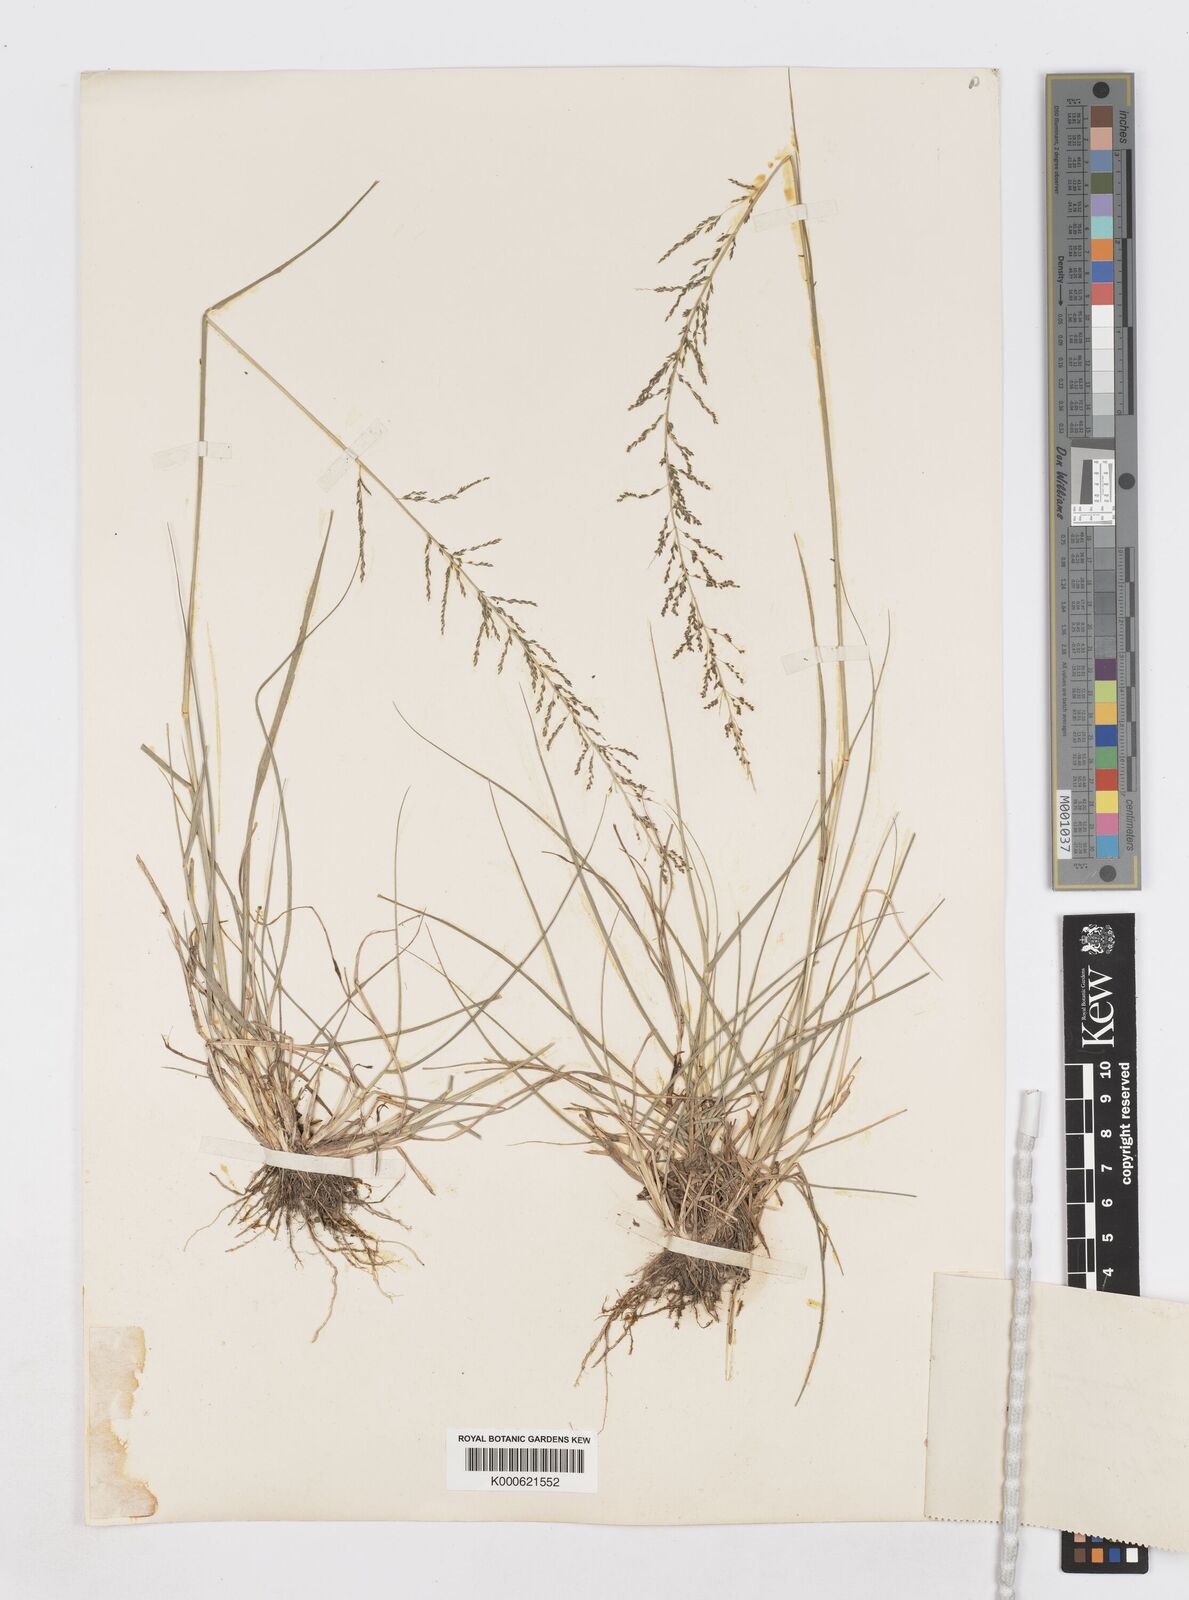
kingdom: Plantae
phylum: Tracheophyta
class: Liliopsida
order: Poales
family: Poaceae
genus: Sporobolus
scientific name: Sporobolus diandrus
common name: Tussock dropseed
